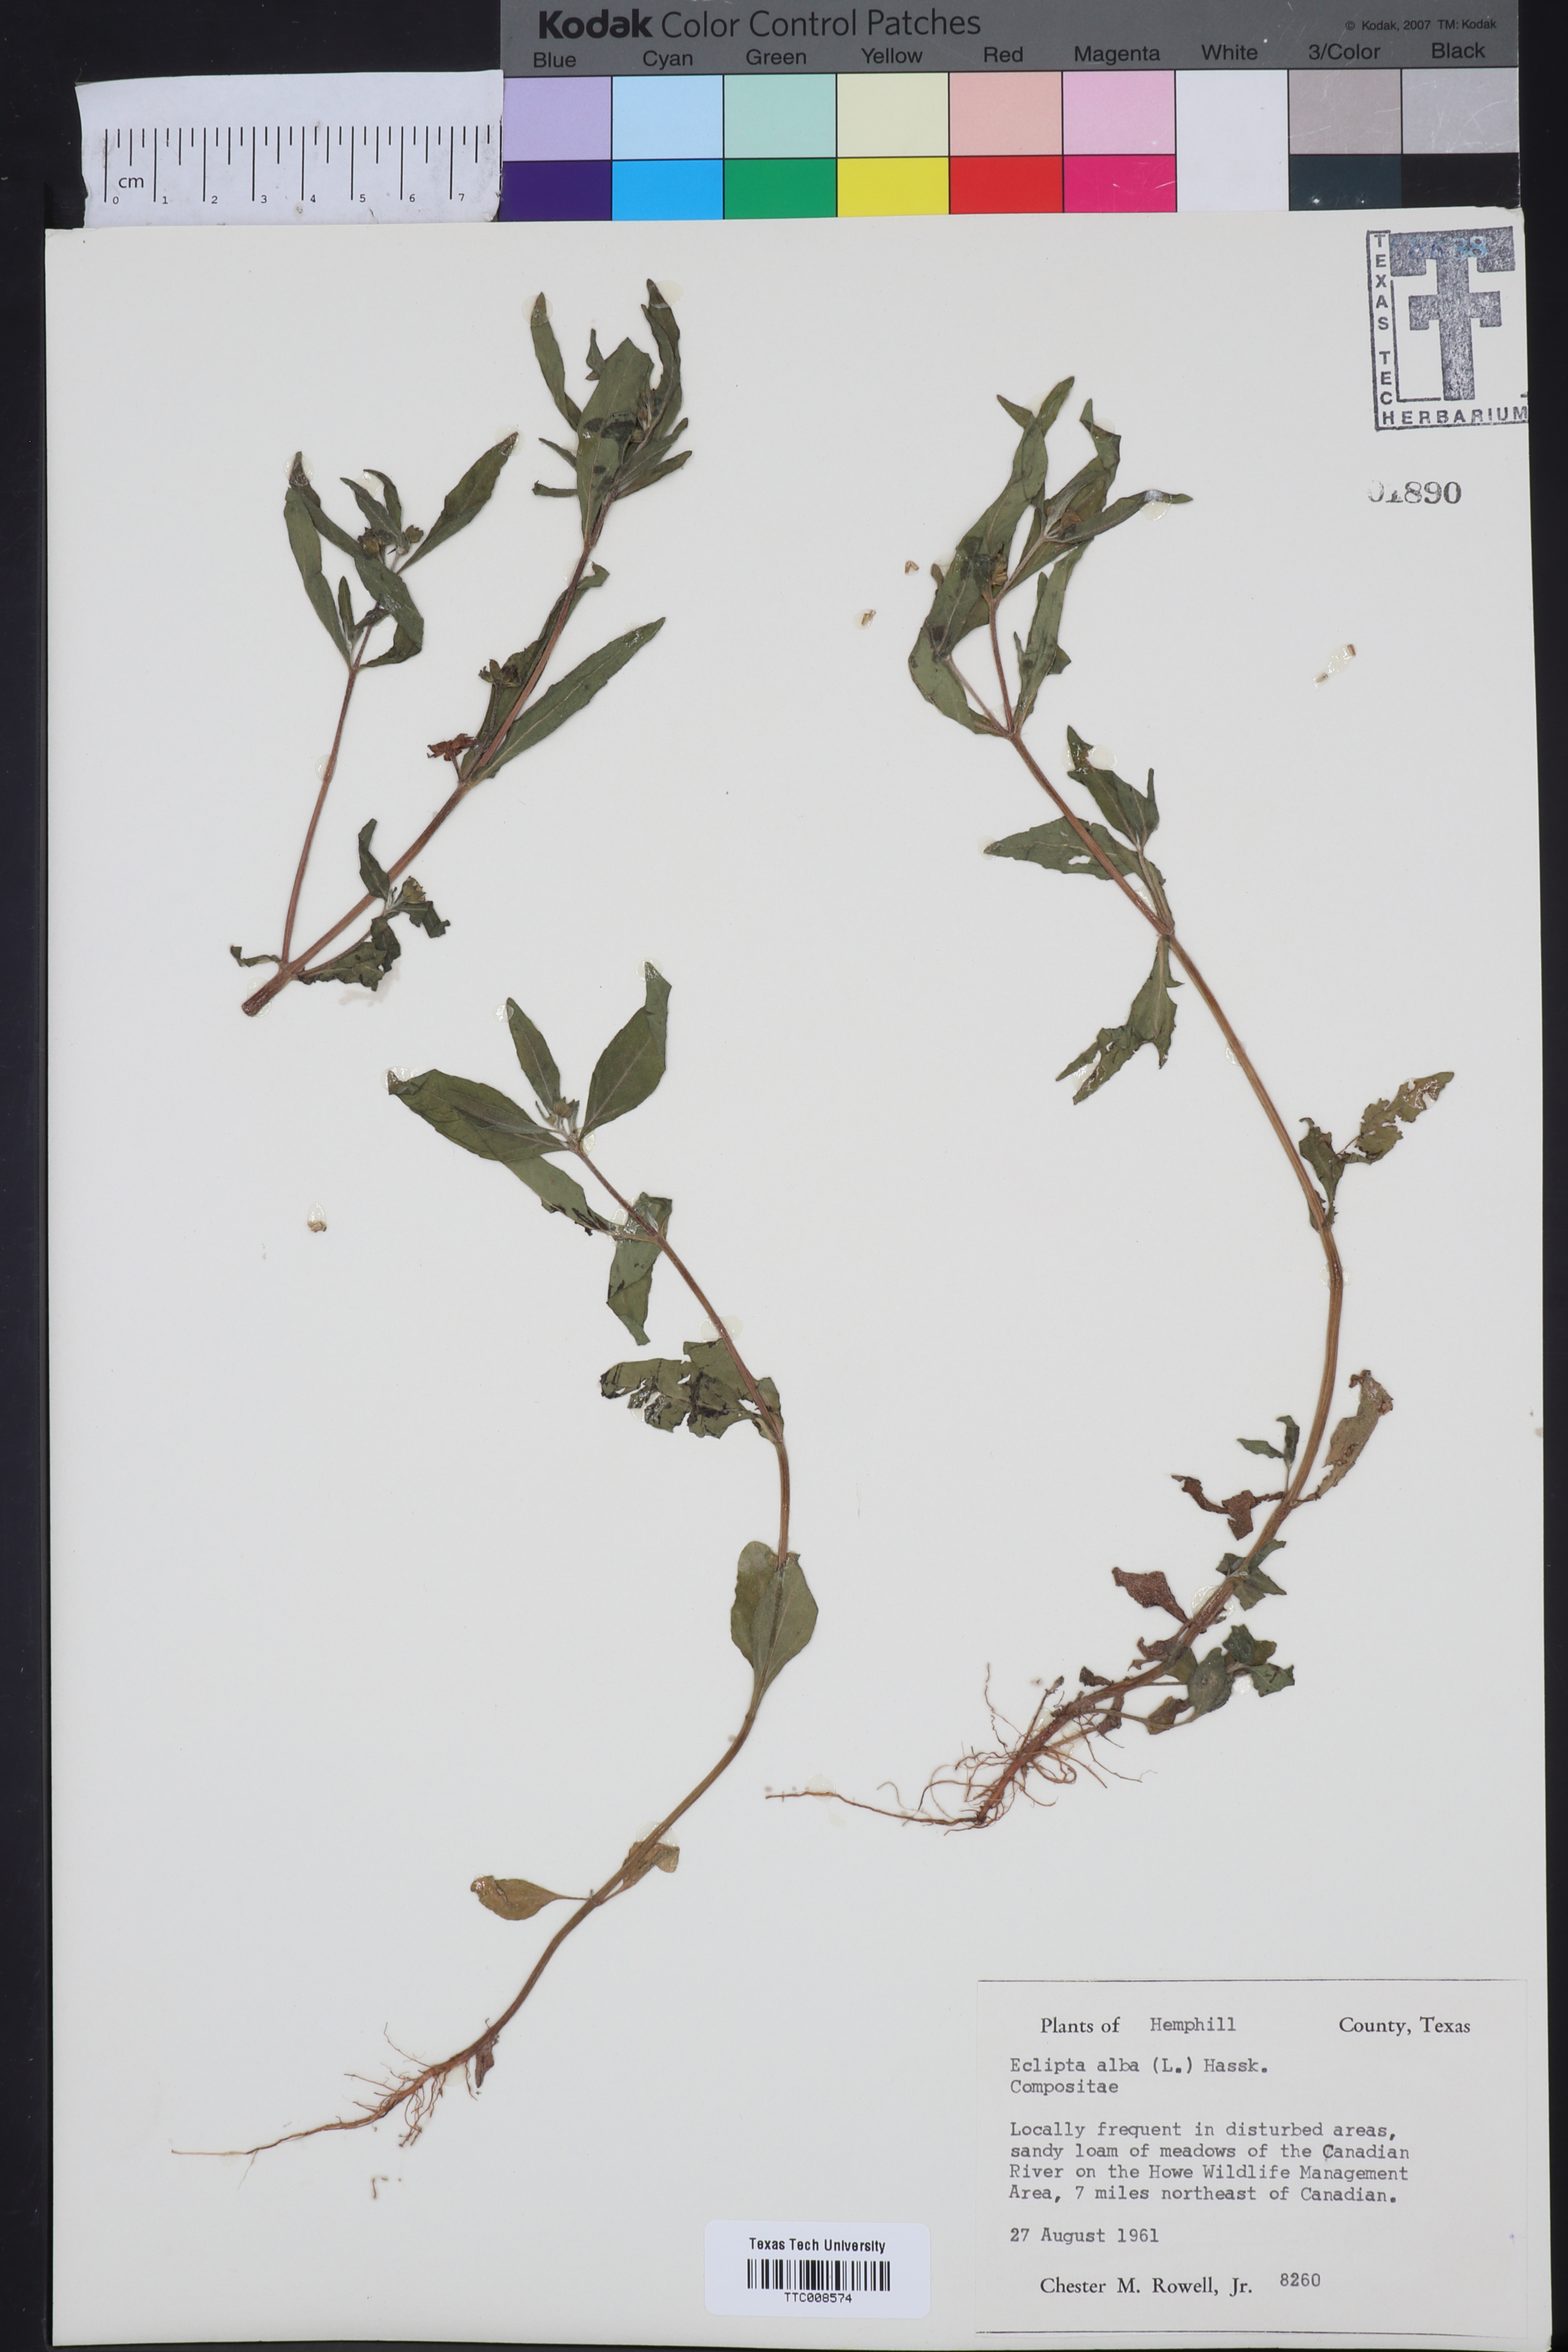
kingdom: Plantae
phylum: Tracheophyta
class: Magnoliopsida
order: Asterales
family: Asteraceae
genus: Eclipta
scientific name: Eclipta alba
